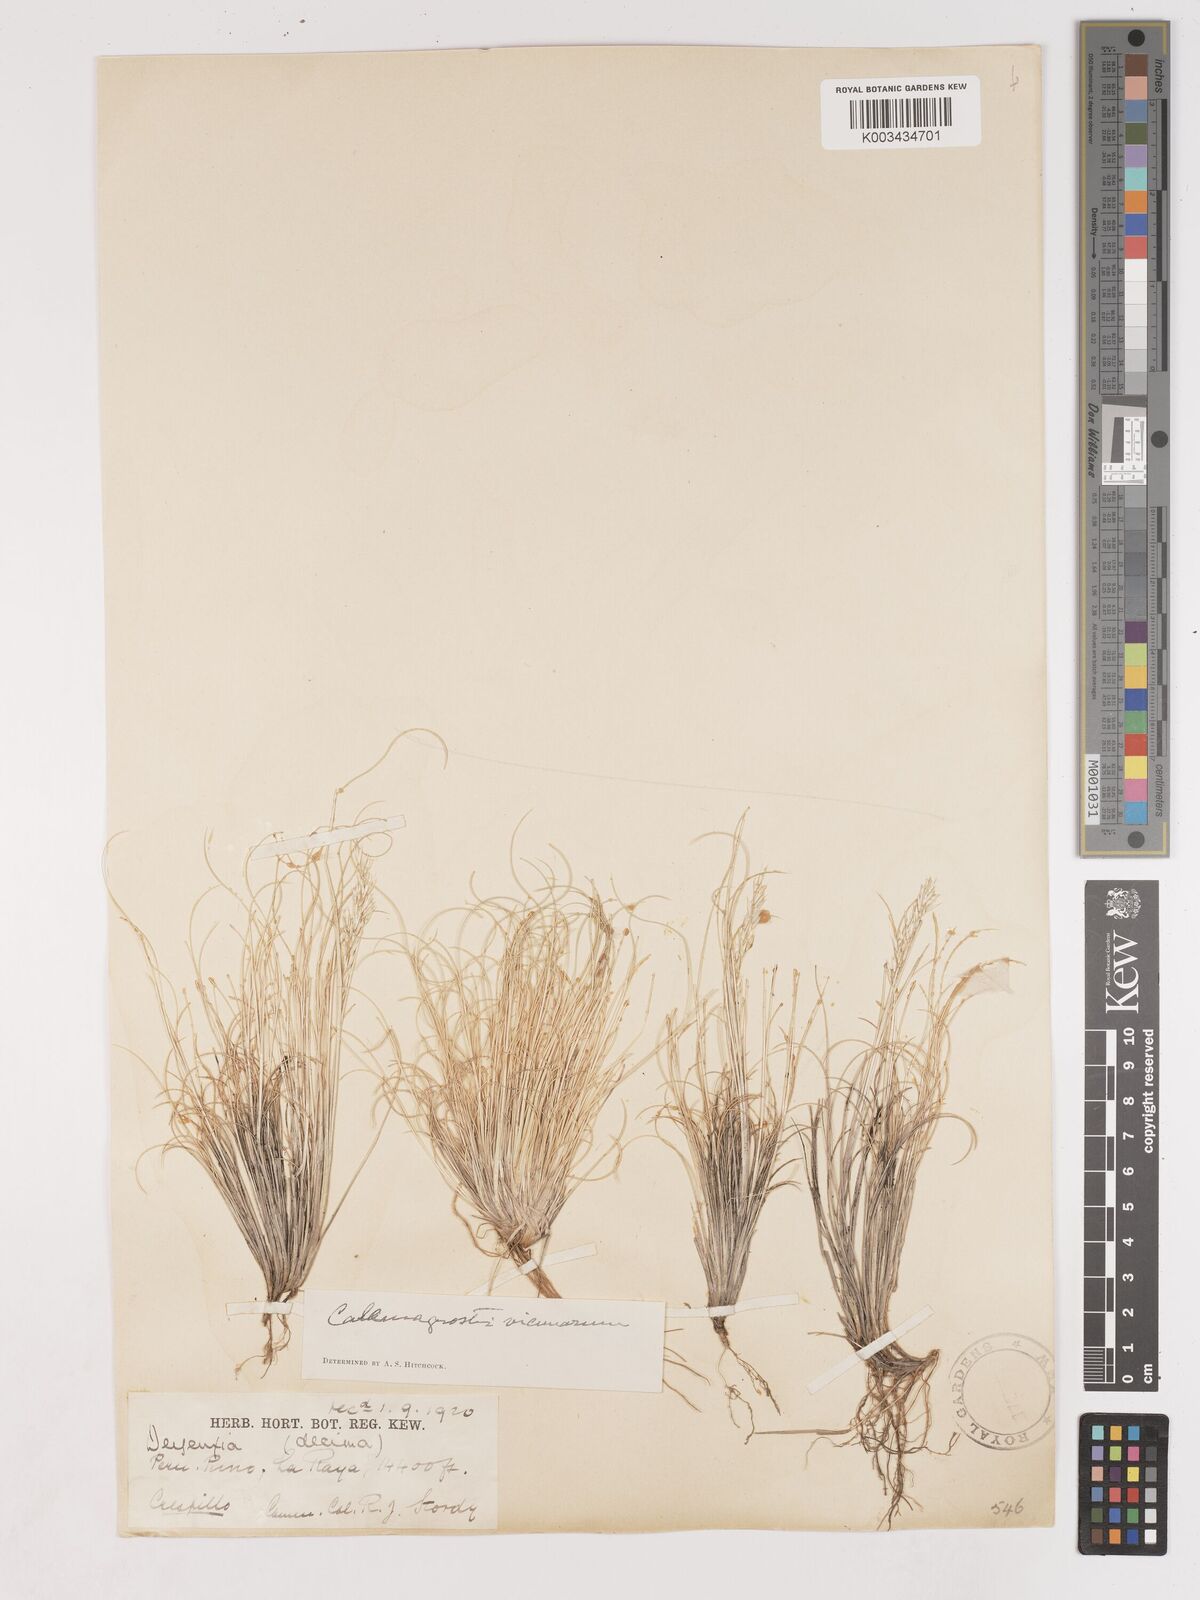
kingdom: Plantae
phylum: Tracheophyta
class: Liliopsida
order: Poales
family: Poaceae
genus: Cinnagrostis
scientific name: Cinnagrostis vicunarum
